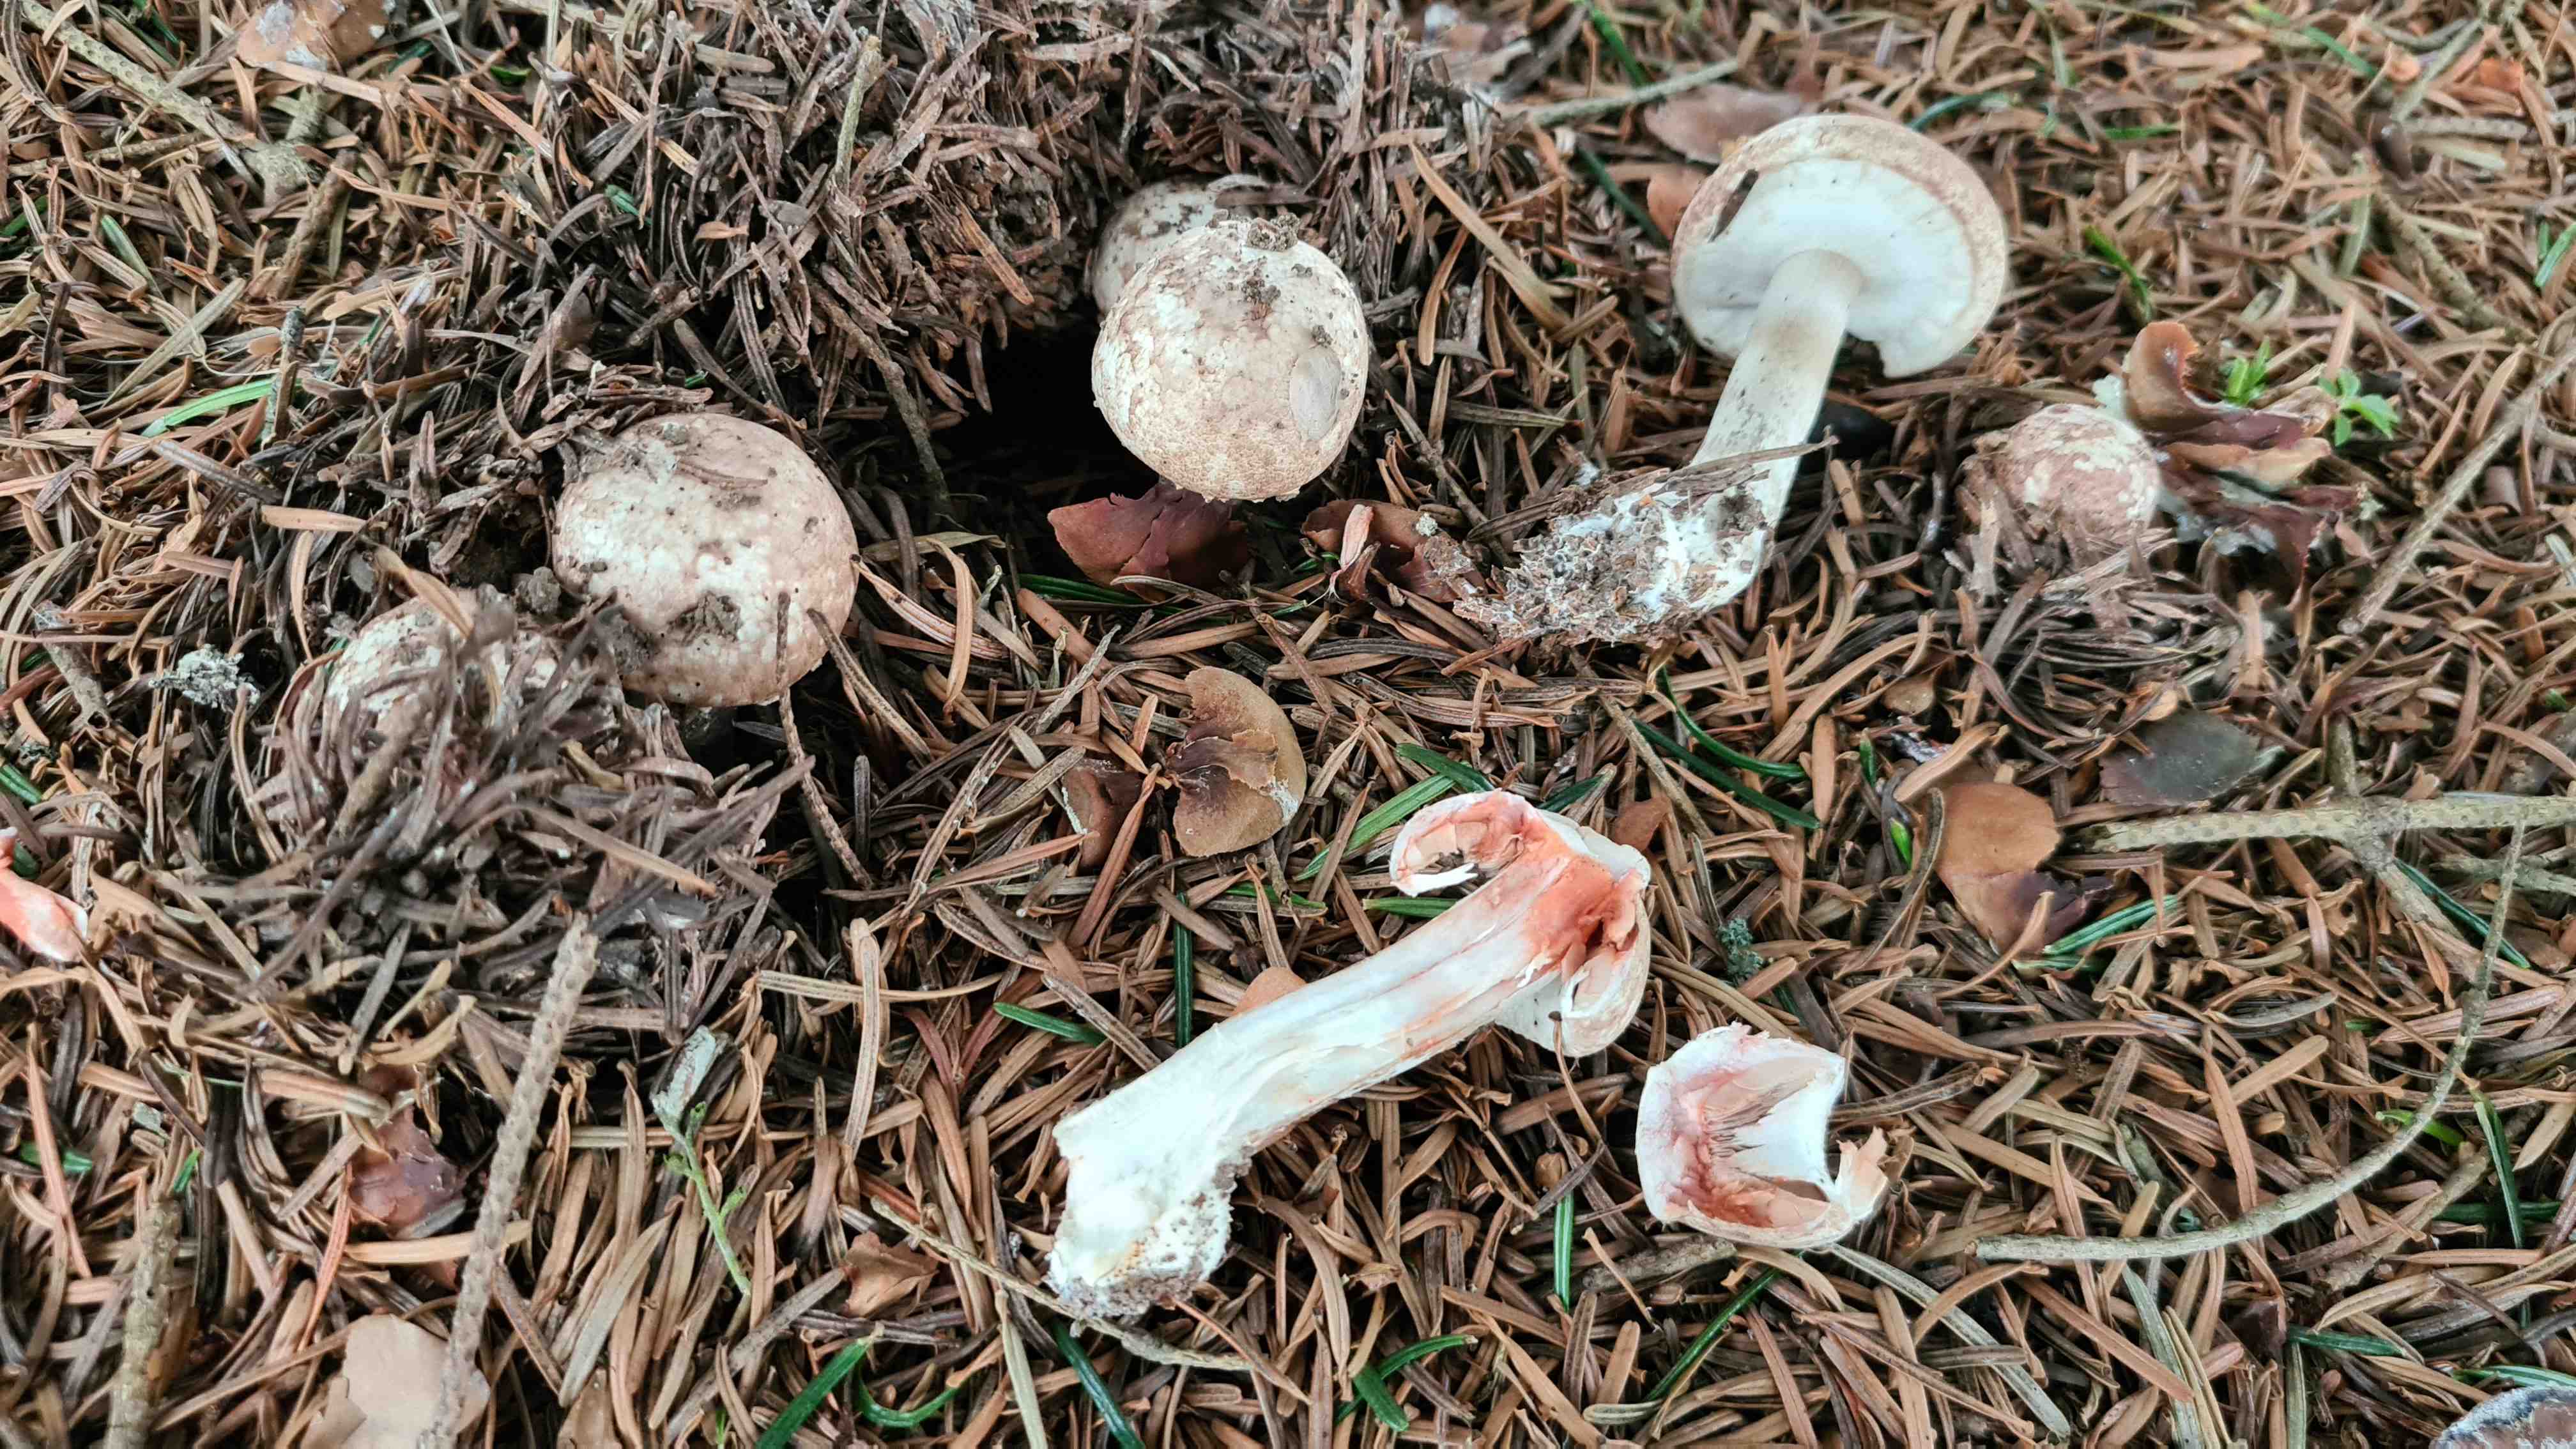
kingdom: Fungi
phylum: Basidiomycota
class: Agaricomycetes
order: Agaricales
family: Agaricaceae
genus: Agaricus
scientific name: Agaricus sylvaticus
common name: lille blod-champignon
